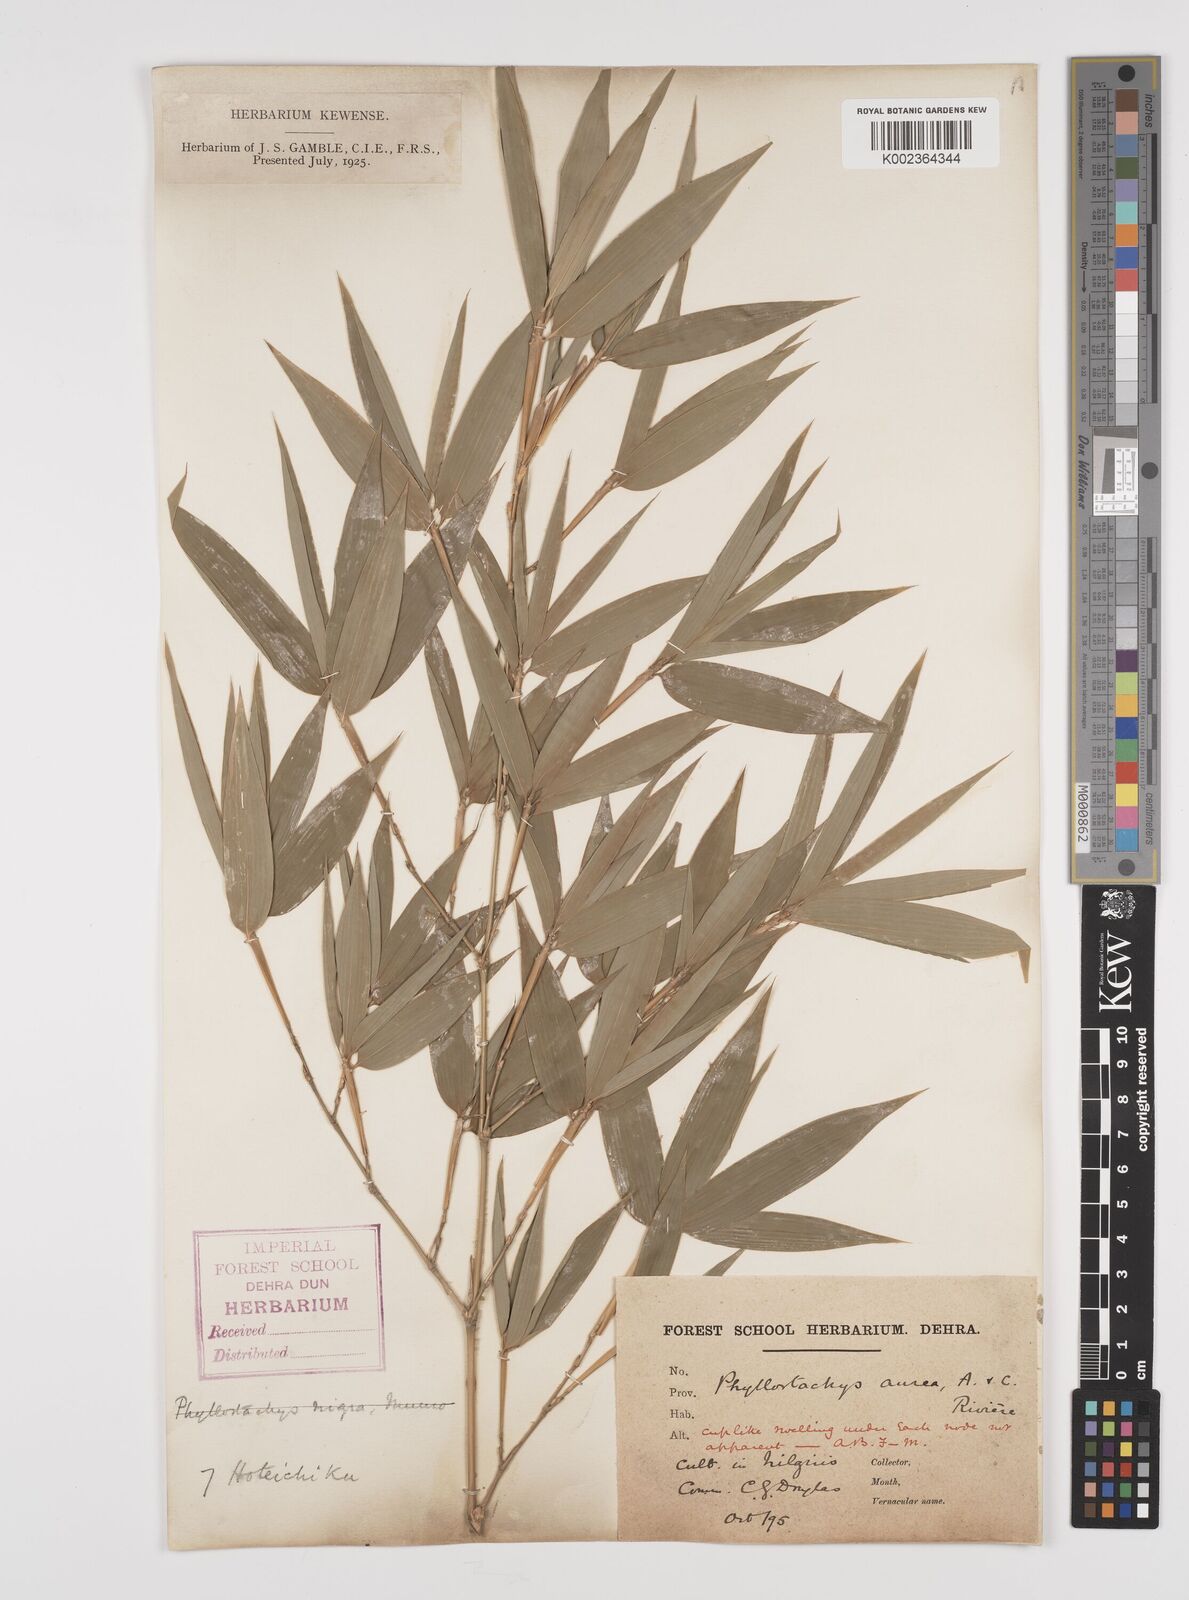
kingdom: Plantae
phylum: Tracheophyta
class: Liliopsida
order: Poales
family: Poaceae
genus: Phyllostachys
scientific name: Phyllostachys aurea
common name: Golden bamboo
